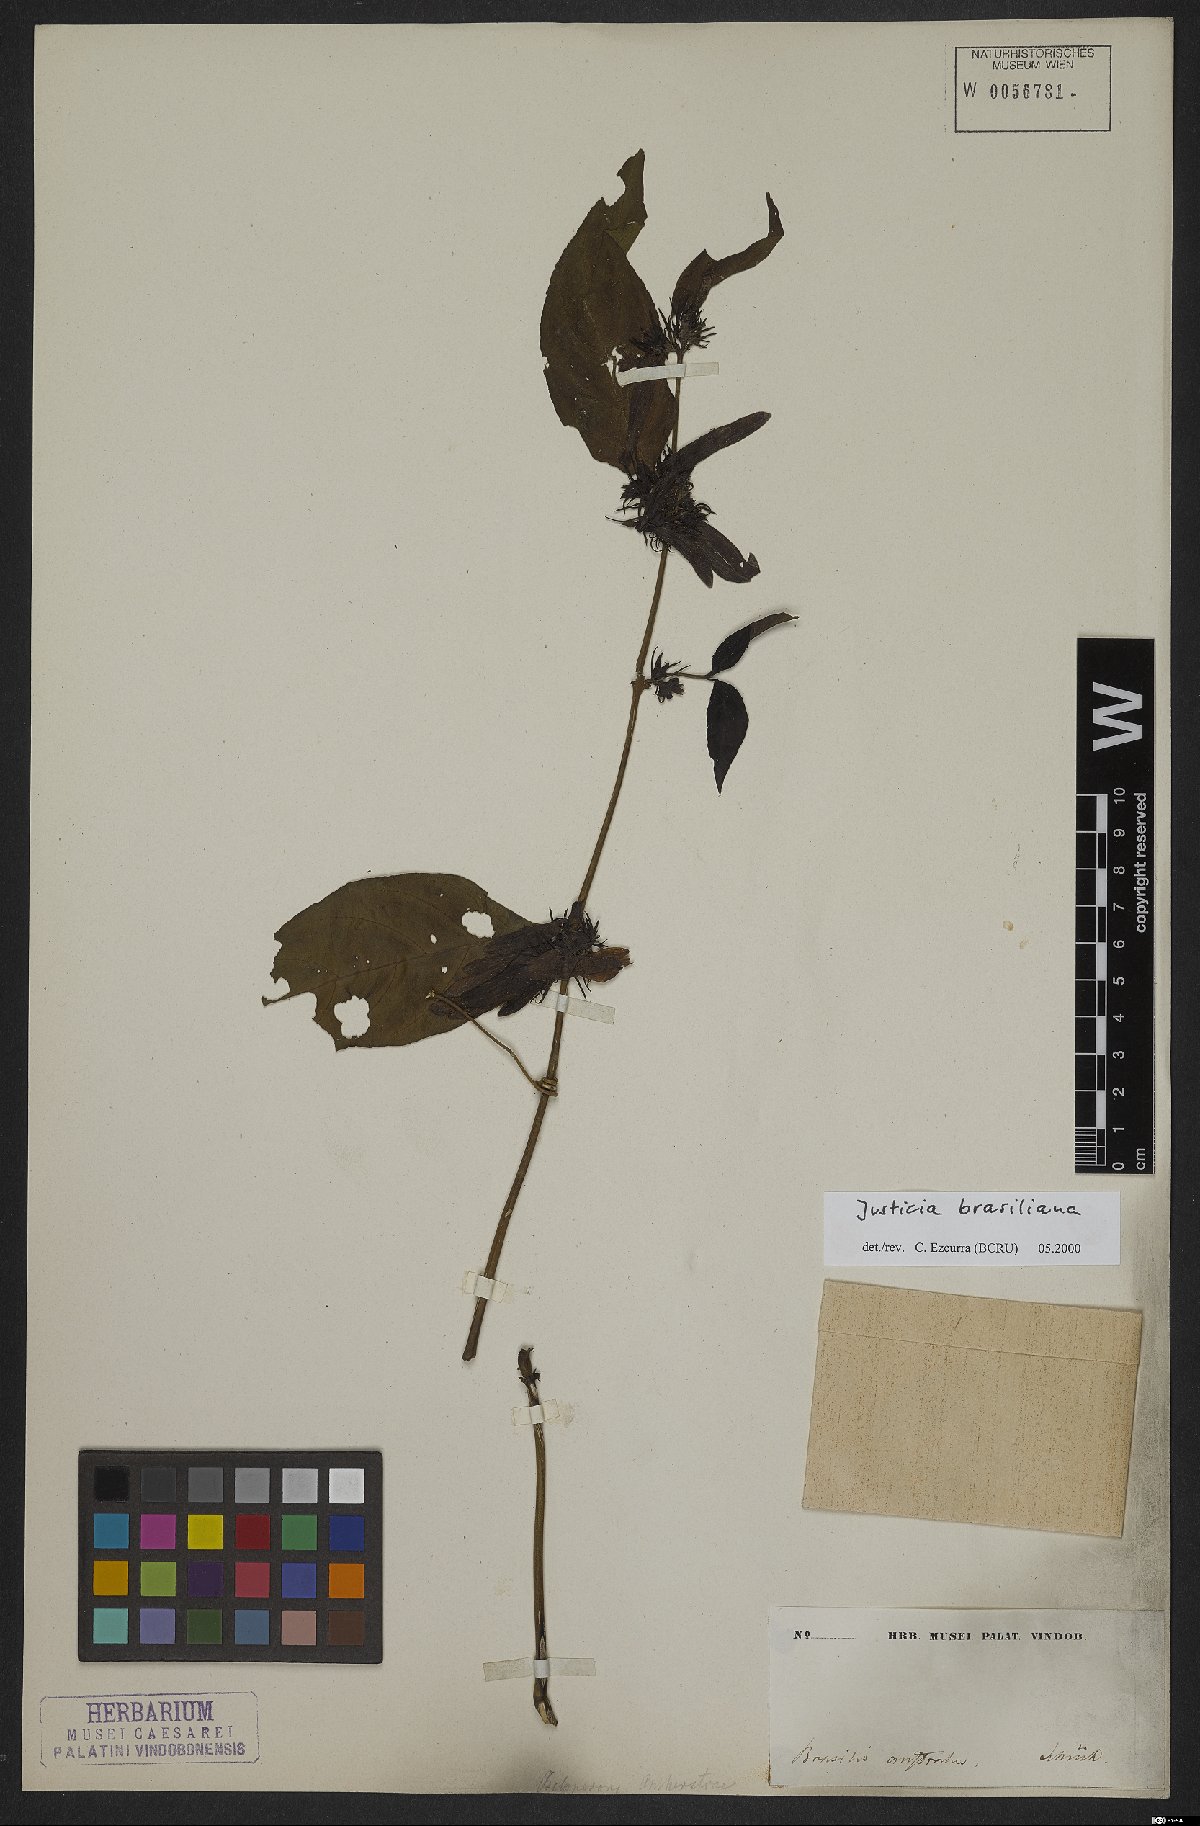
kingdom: Plantae
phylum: Tracheophyta
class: Magnoliopsida
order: Lamiales
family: Acanthaceae
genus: Justicia
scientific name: Justicia brasiliana
